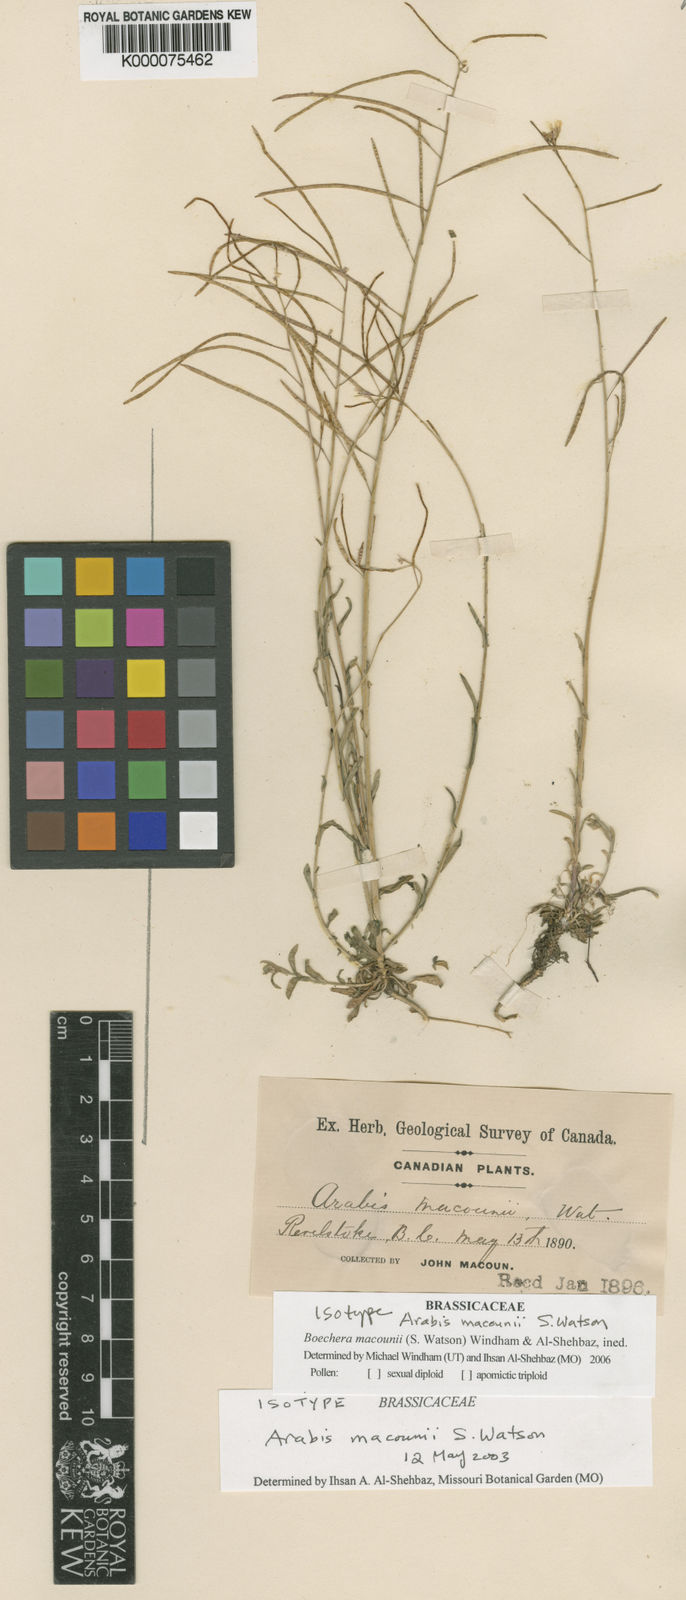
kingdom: Plantae
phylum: Tracheophyta
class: Magnoliopsida
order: Brassicales
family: Brassicaceae
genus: Boechera
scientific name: Boechera macounii
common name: Macoun's rockcress
